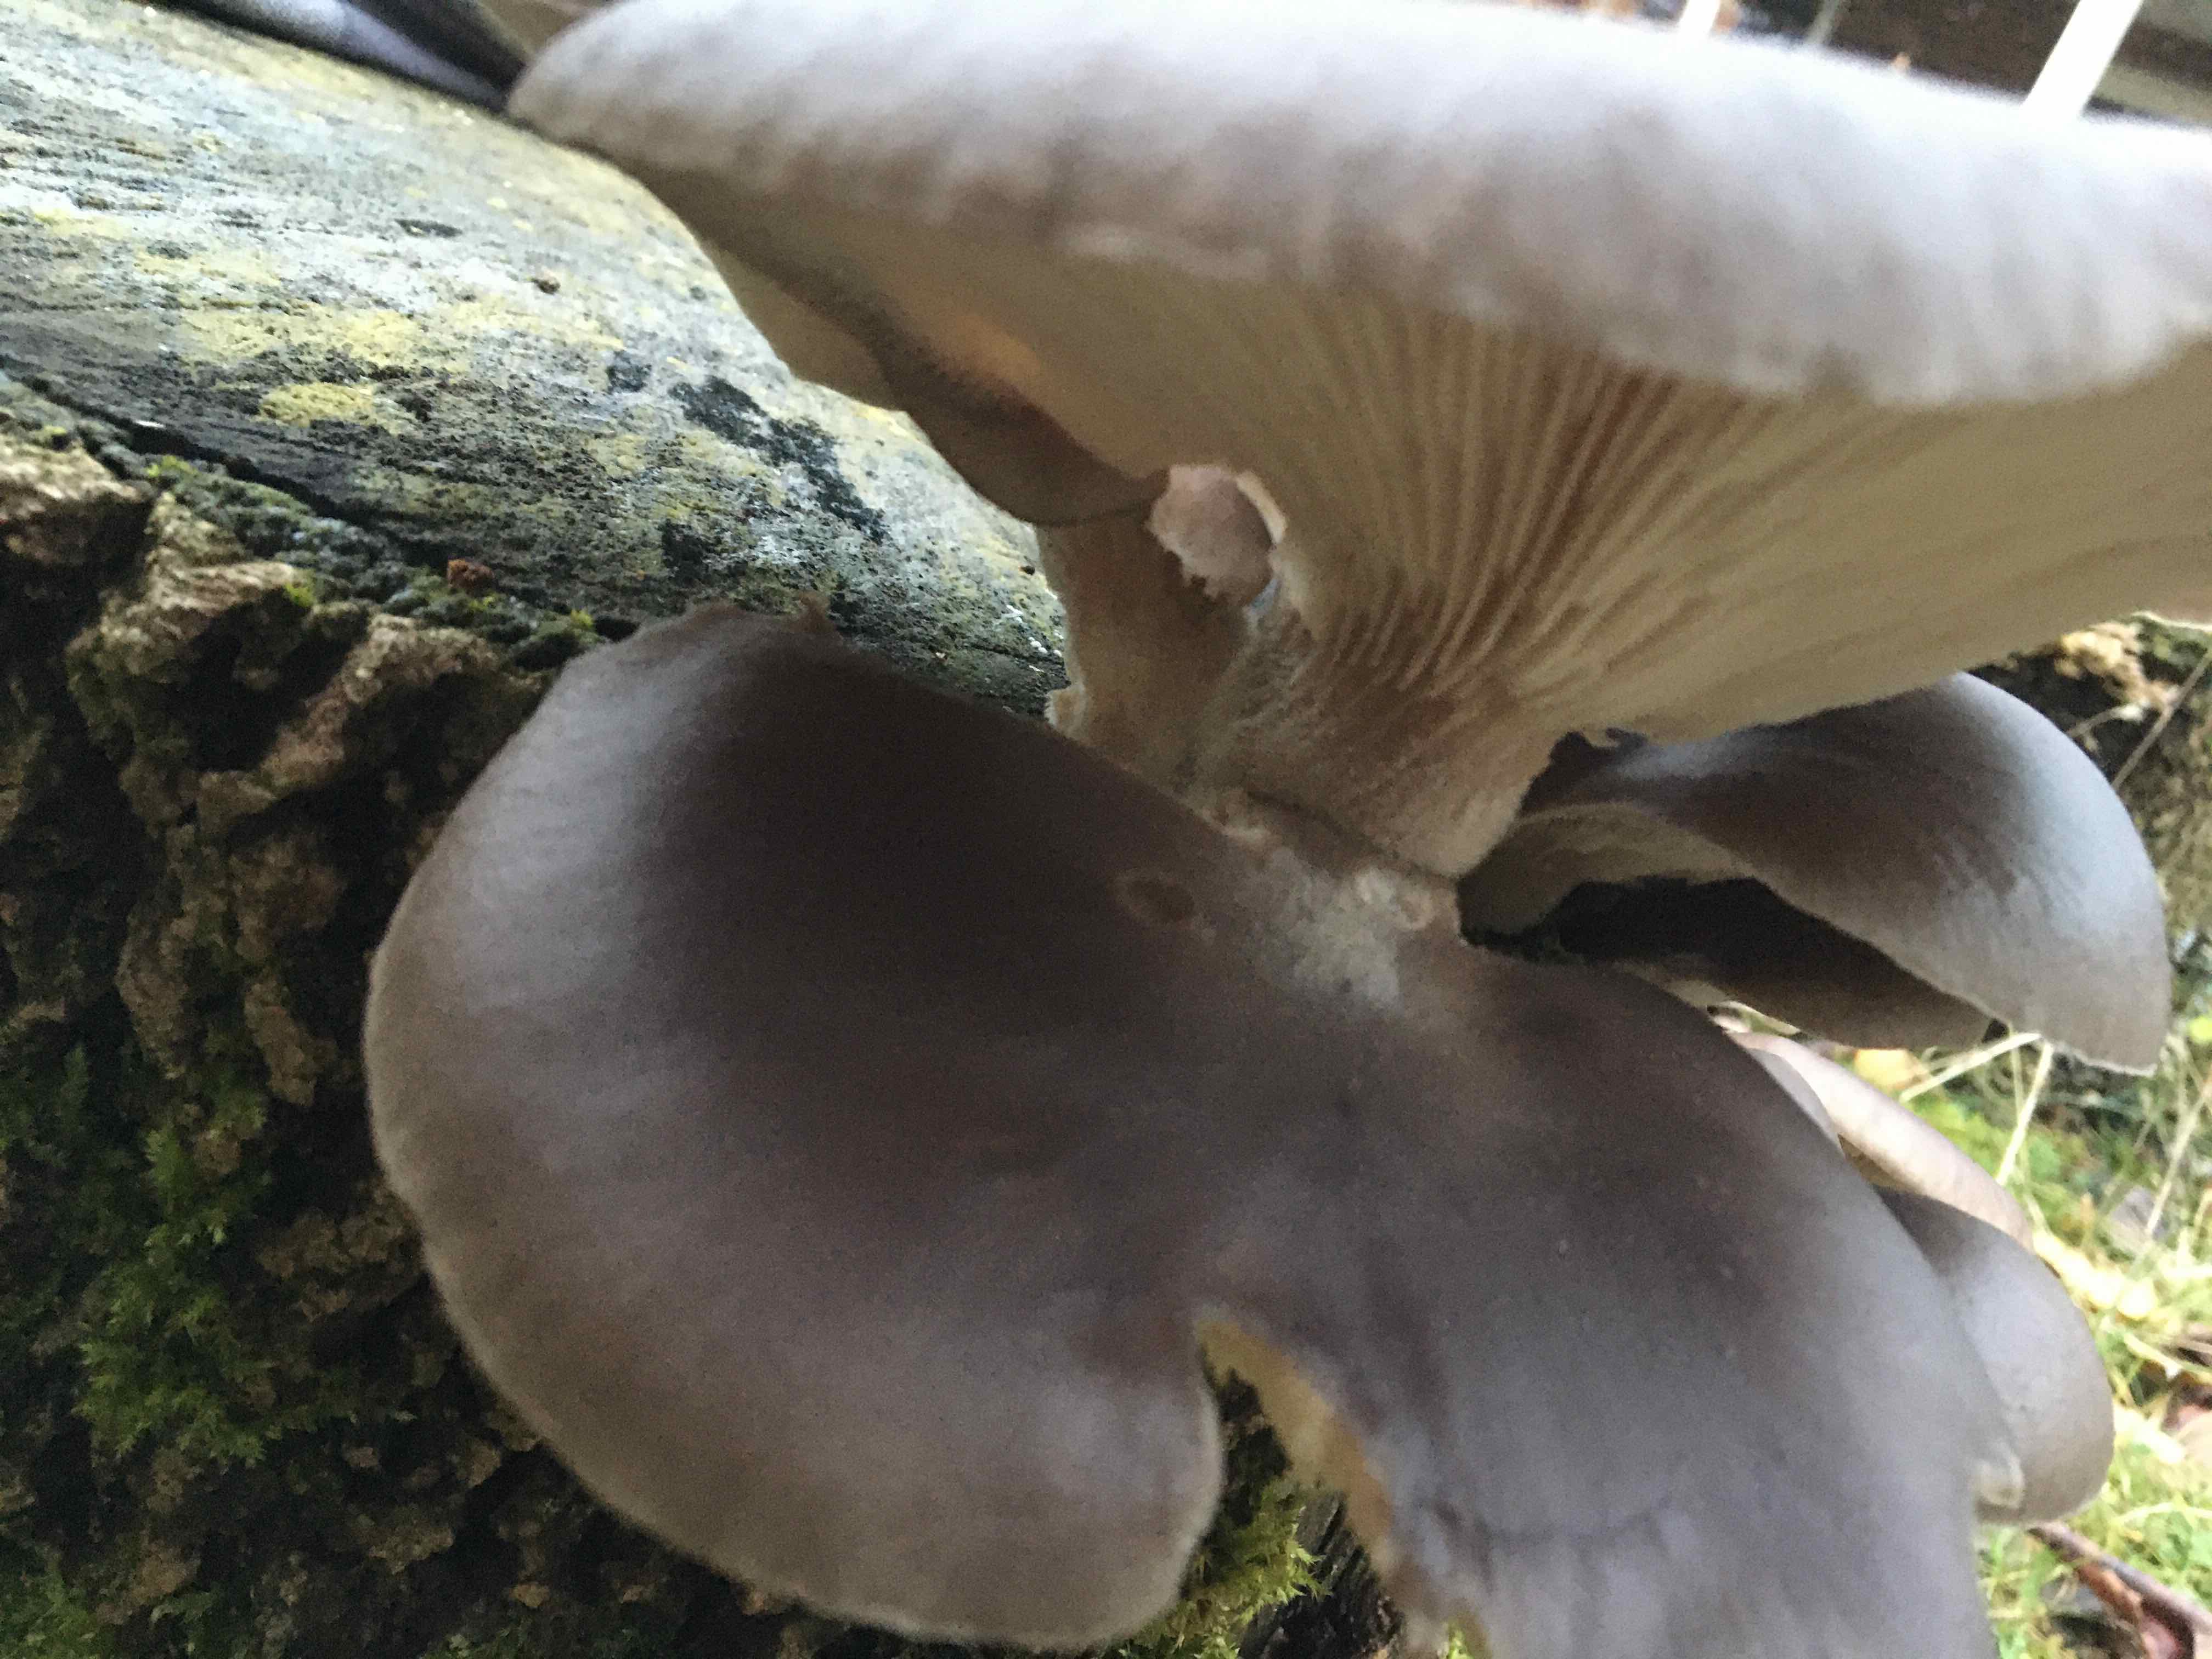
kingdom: Fungi
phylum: Basidiomycota
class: Agaricomycetes
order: Agaricales
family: Pleurotaceae
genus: Pleurotus
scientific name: Pleurotus ostreatus
